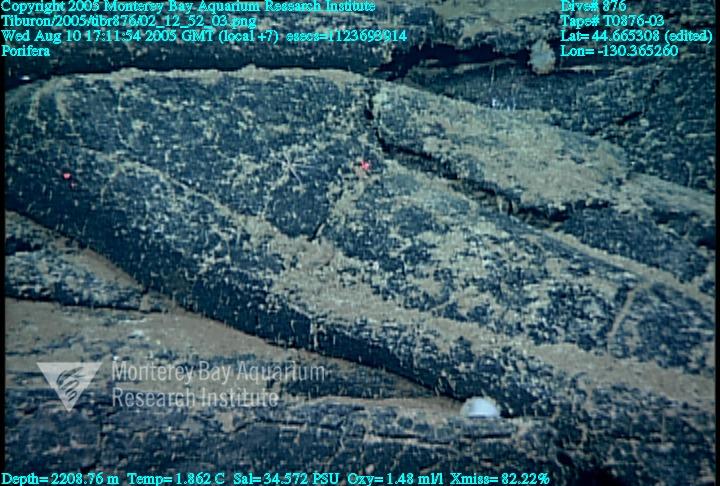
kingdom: Animalia
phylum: Porifera
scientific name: Porifera
